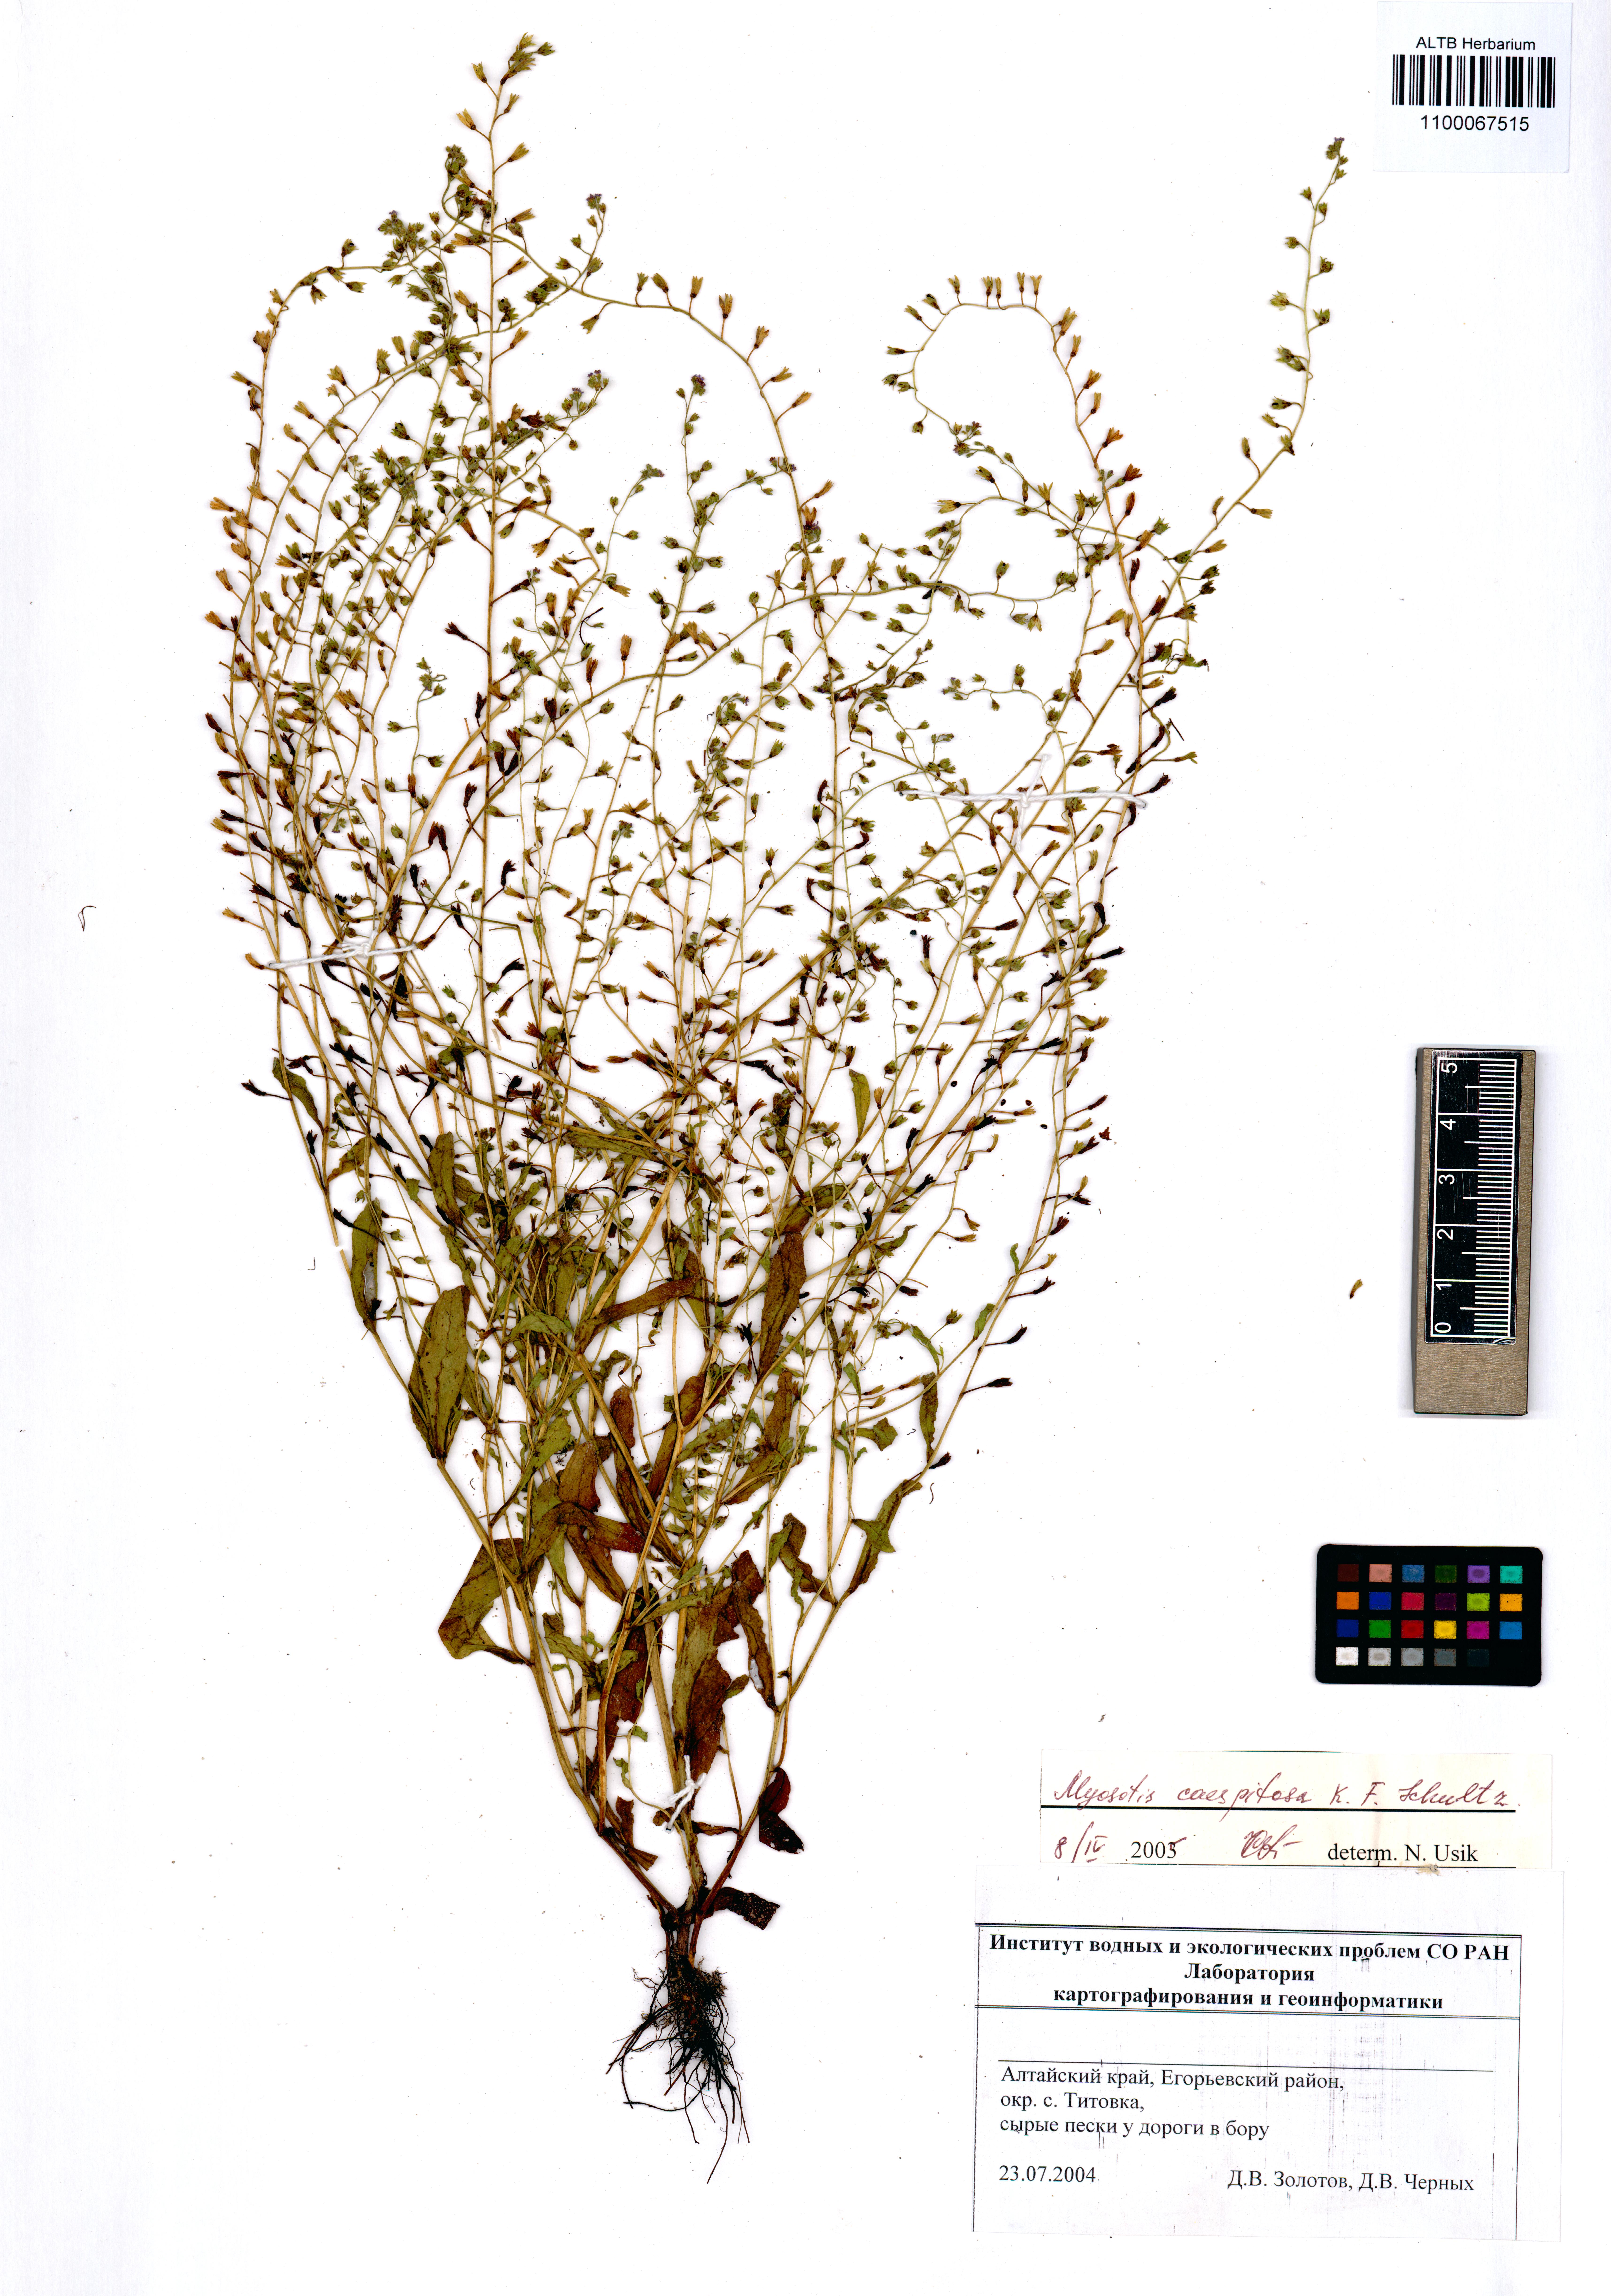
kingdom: Plantae
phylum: Tracheophyta
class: Magnoliopsida
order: Boraginales
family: Boraginaceae
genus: Myosotis
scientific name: Myosotis laxa
